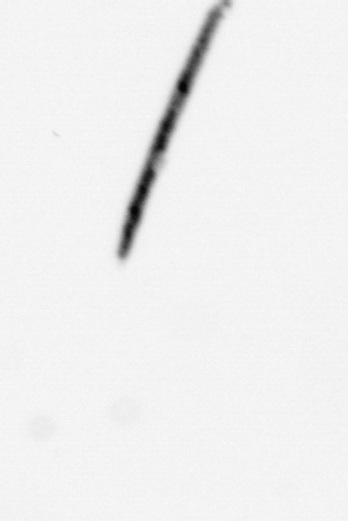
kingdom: Chromista
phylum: Ochrophyta
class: Bacillariophyceae
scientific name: Bacillariophyceae
